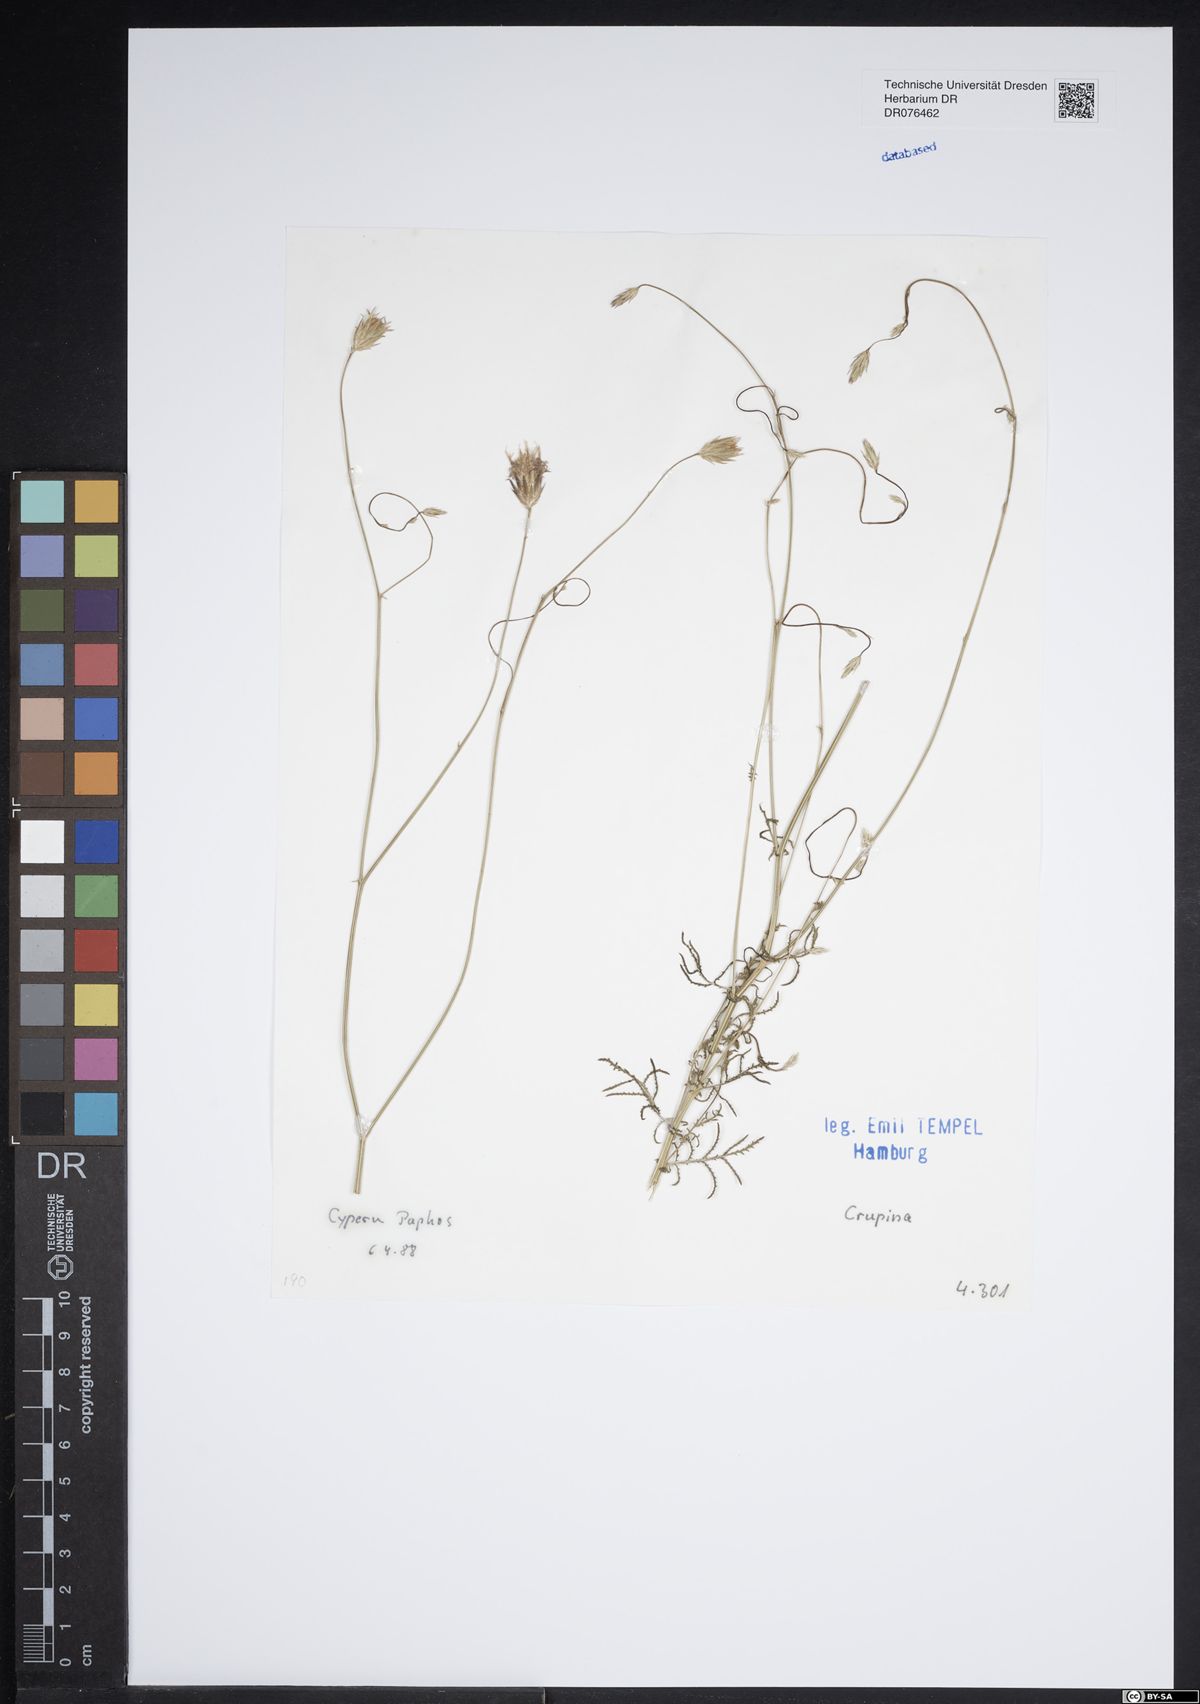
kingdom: Plantae
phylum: Tracheophyta
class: Magnoliopsida
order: Asterales
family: Asteraceae
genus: Crupina
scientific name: Crupina
